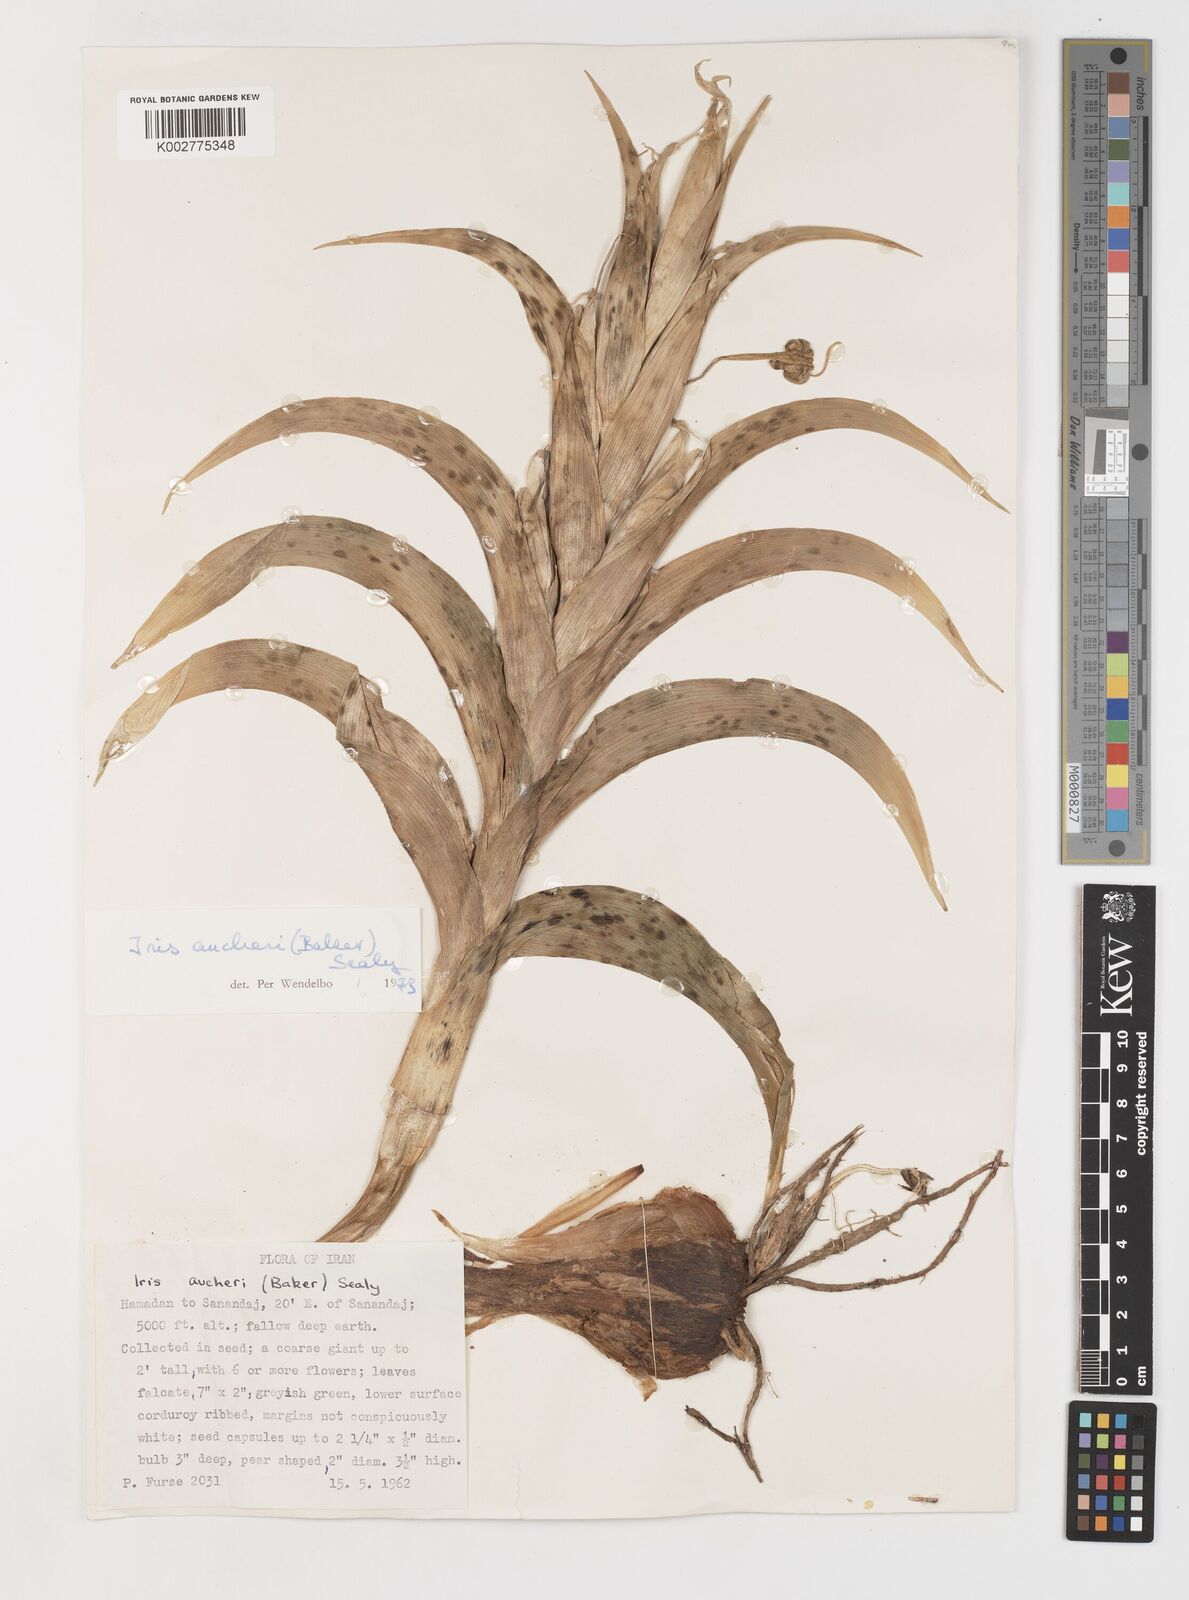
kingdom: Plantae
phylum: Tracheophyta
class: Liliopsida
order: Asparagales
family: Iridaceae
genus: Iris
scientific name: Iris aucheri
